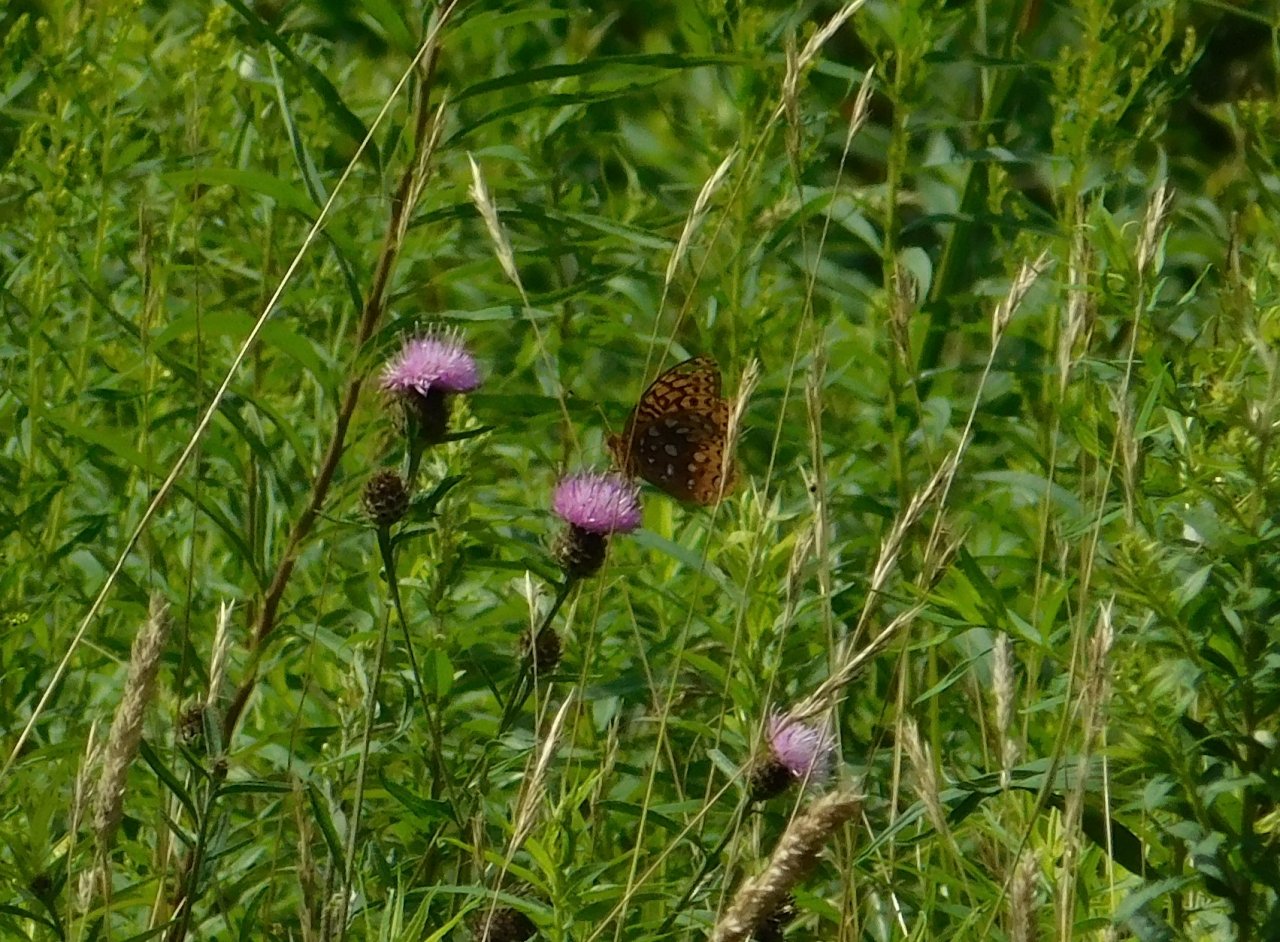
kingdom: Animalia
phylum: Arthropoda
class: Insecta
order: Lepidoptera
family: Nymphalidae
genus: Speyeria
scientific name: Speyeria cybele
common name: Great Spangled Fritillary
